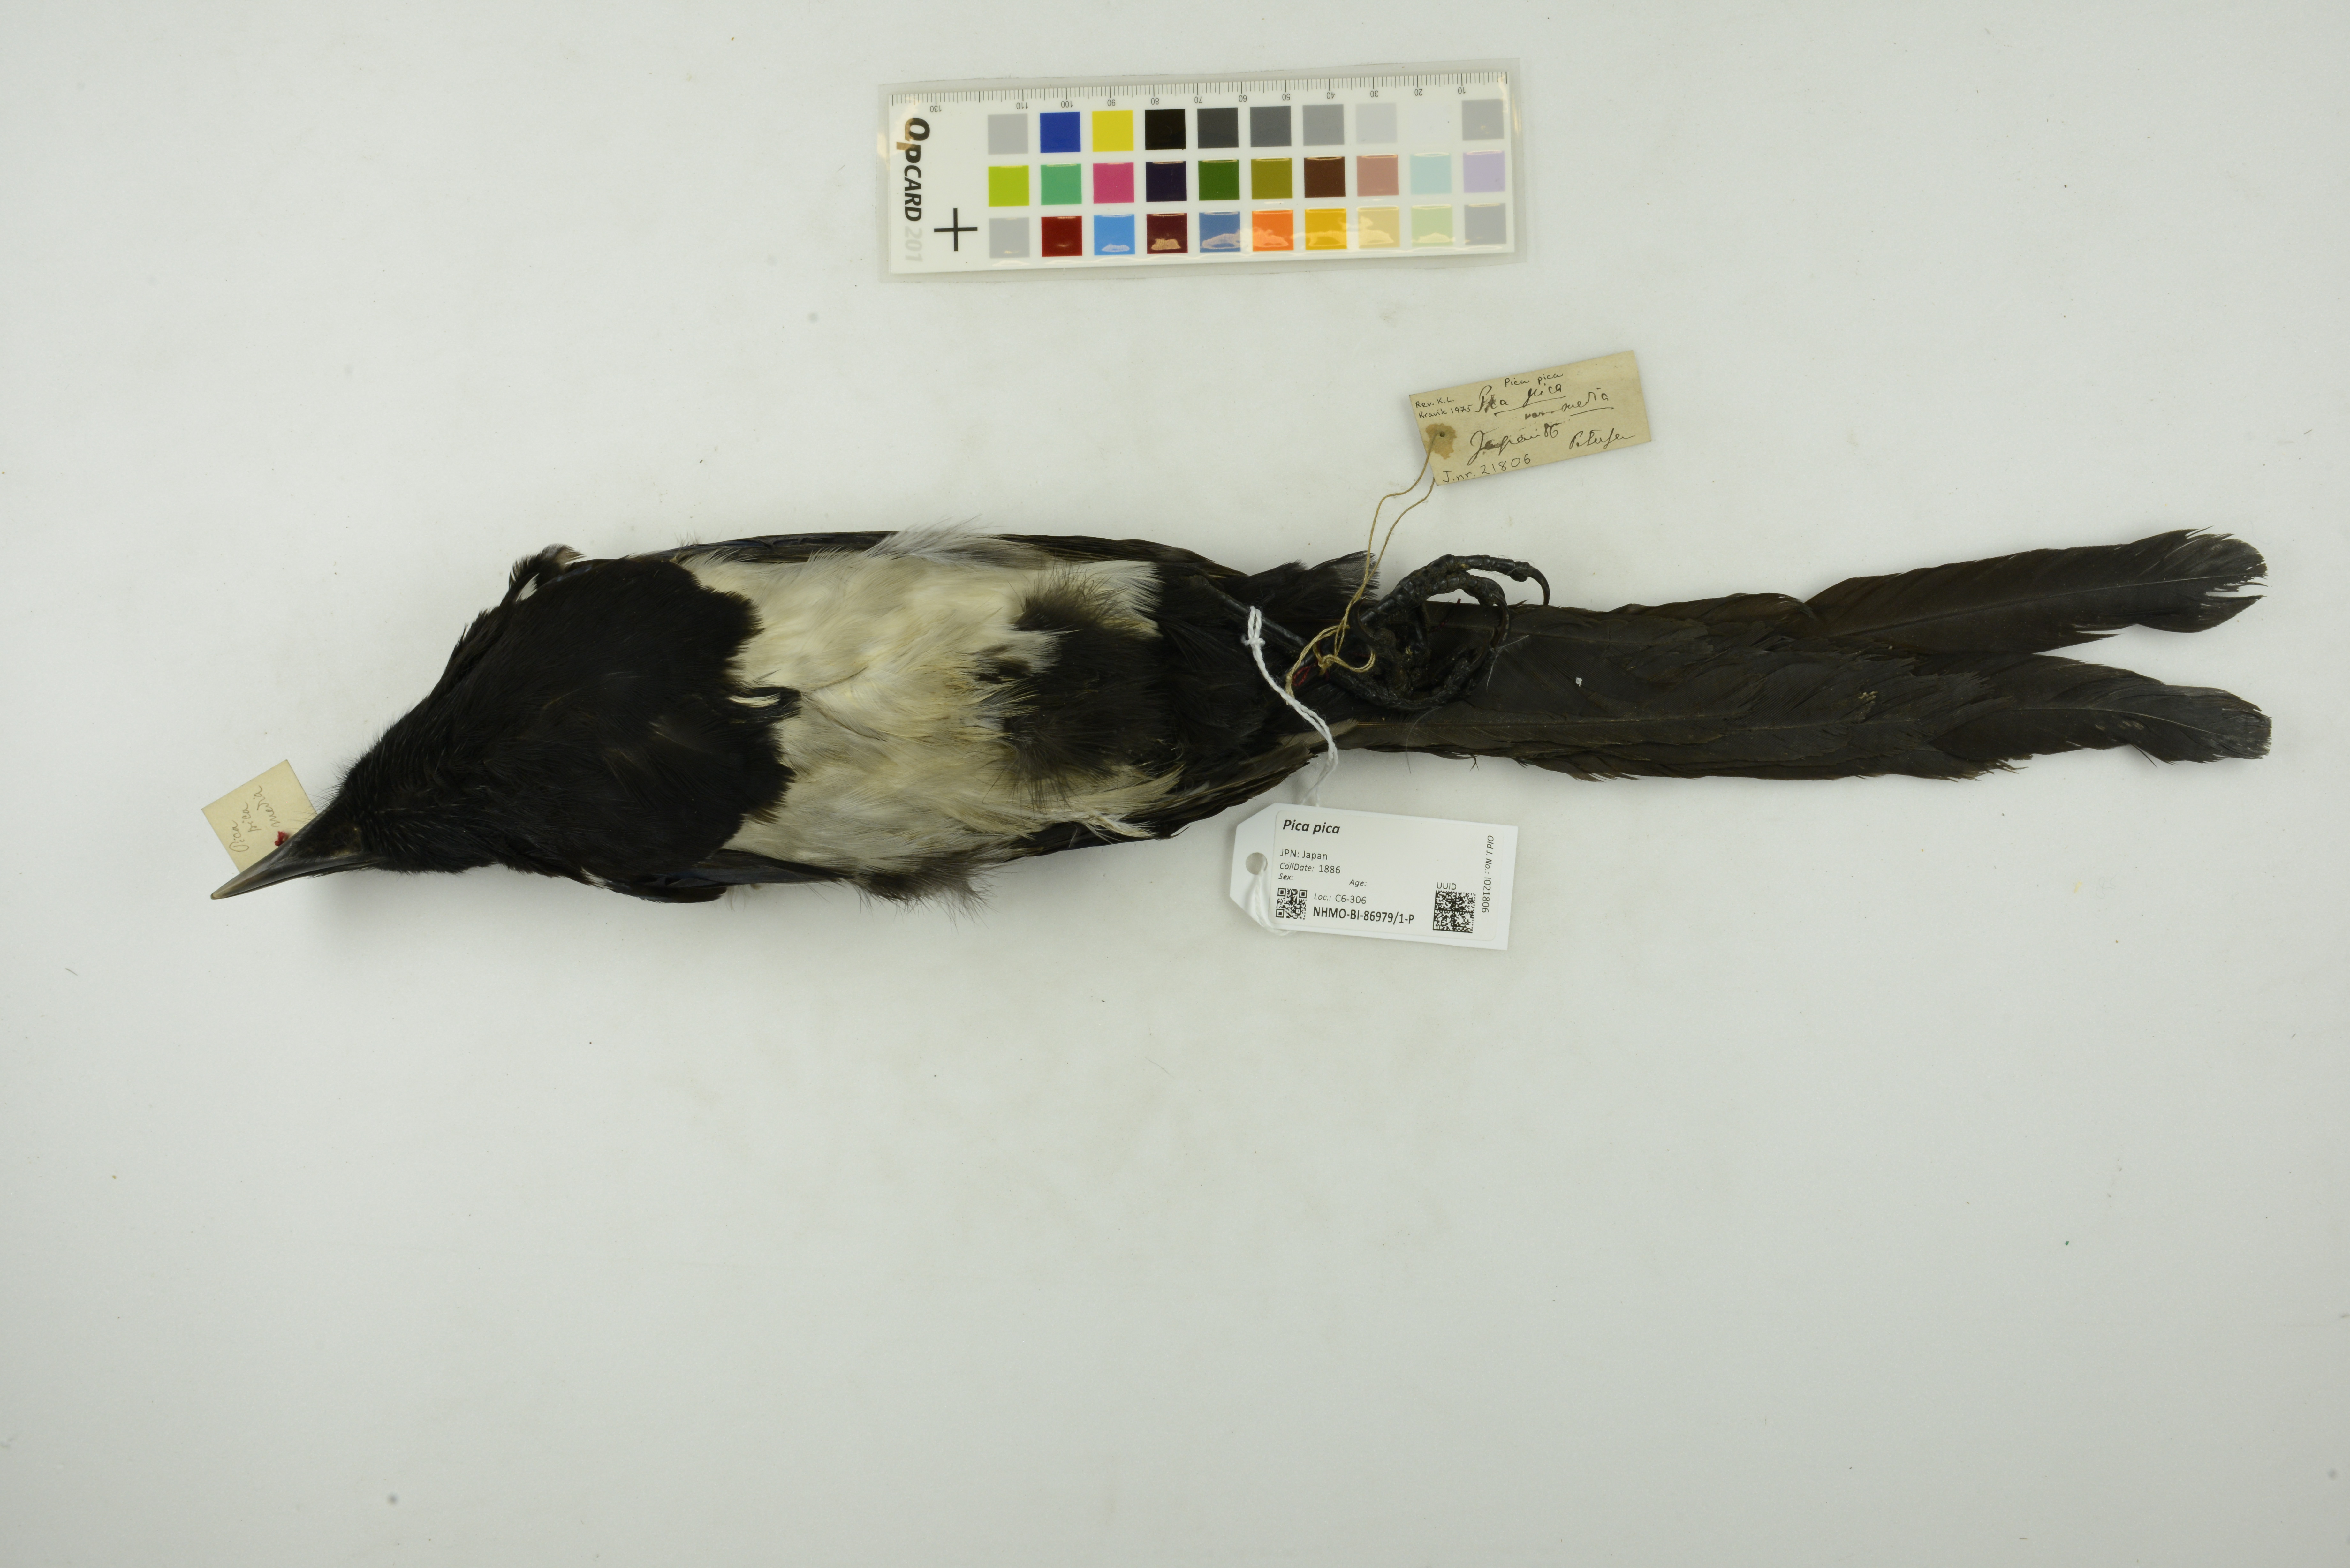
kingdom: Animalia
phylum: Chordata
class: Aves
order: Passeriformes
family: Corvidae
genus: Pica
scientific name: Pica pica
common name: Eurasian magpie
